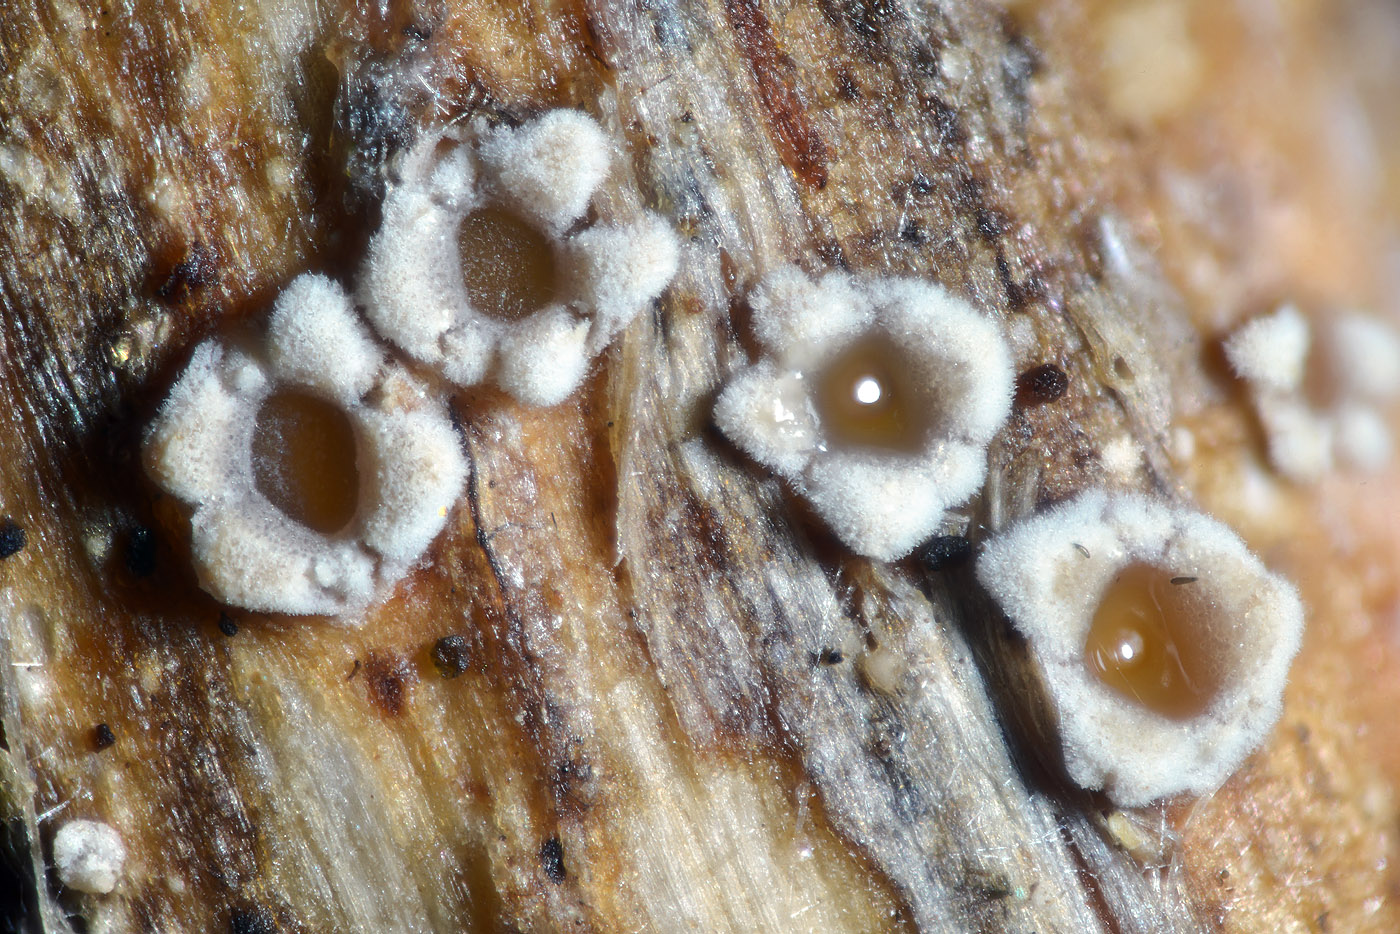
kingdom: Fungi
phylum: Ascomycota
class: Lecanoromycetes
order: Ostropales
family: Stictidaceae
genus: Stictis
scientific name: Stictis radiata
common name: tandet barkhul
